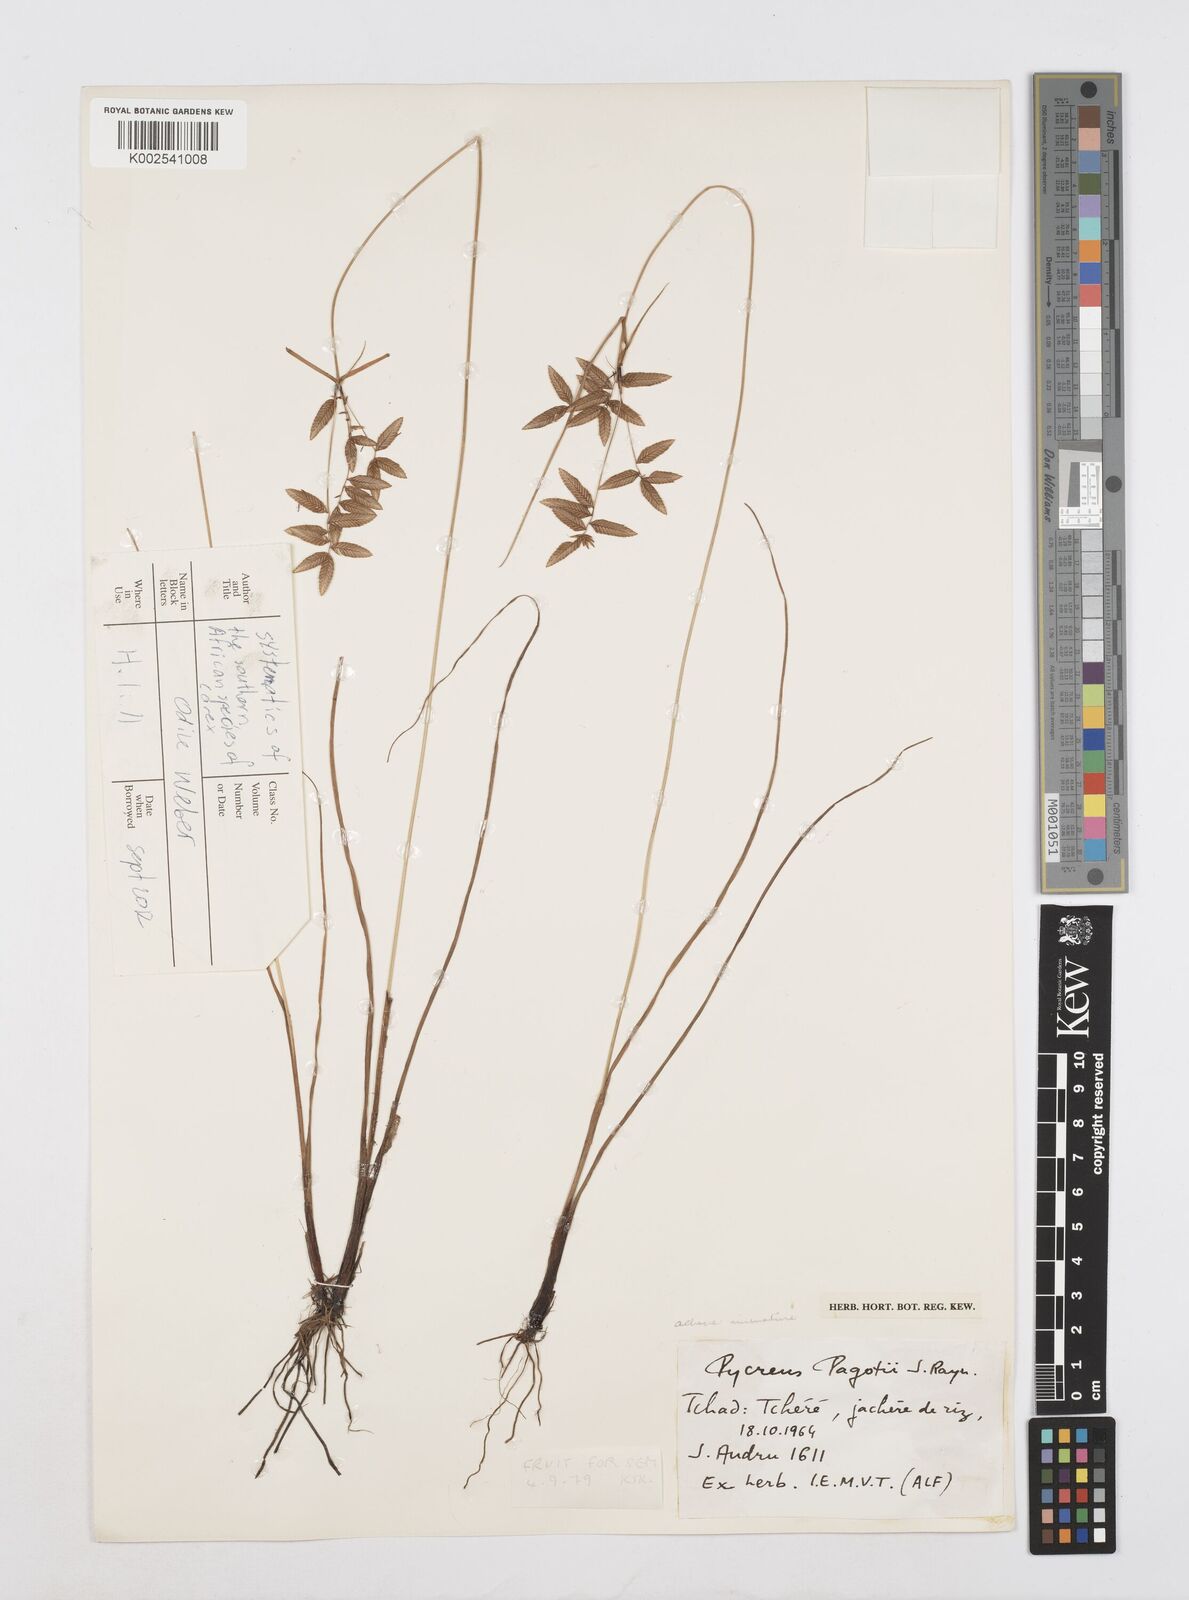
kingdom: Plantae
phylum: Tracheophyta
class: Liliopsida
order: Poales
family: Cyperaceae
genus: Cyperus
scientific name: Cyperus pagotii
